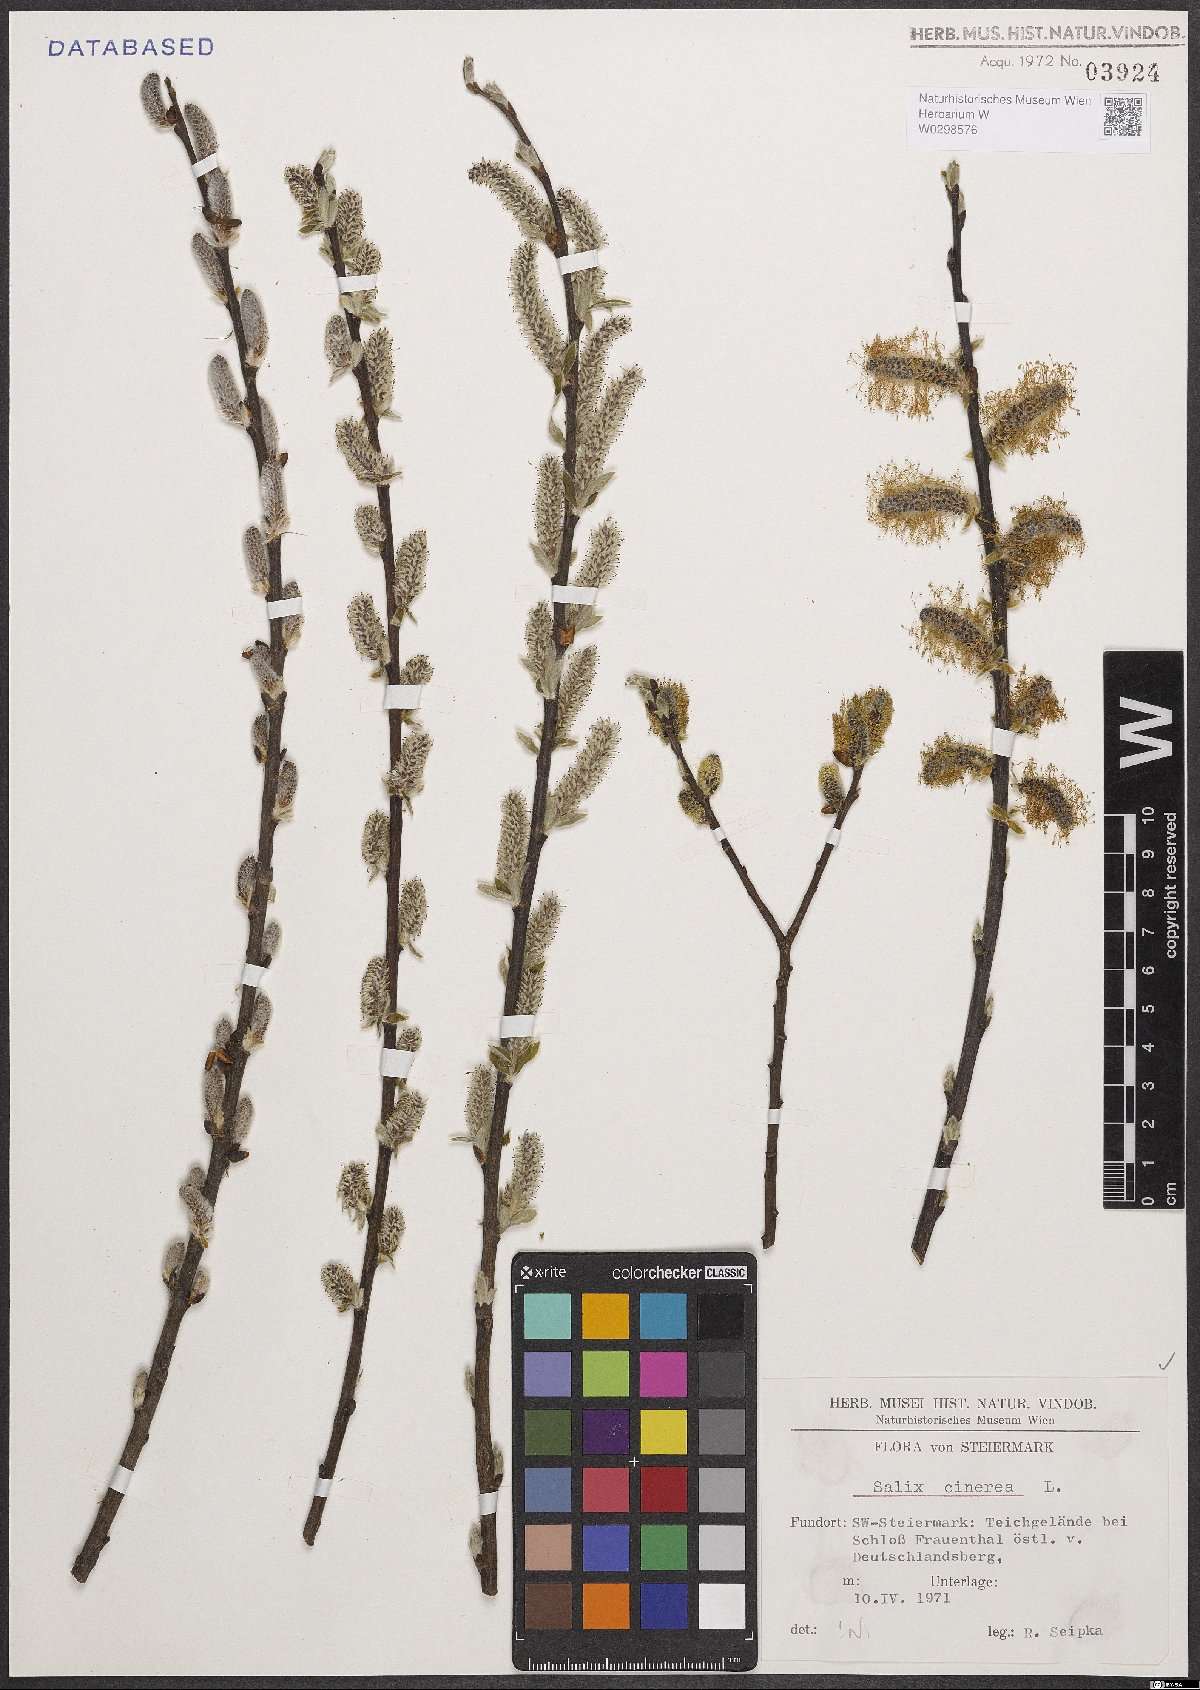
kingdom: Plantae
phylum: Tracheophyta
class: Magnoliopsida
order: Malpighiales
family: Salicaceae
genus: Salix
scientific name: Salix cinerea
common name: Common sallow
